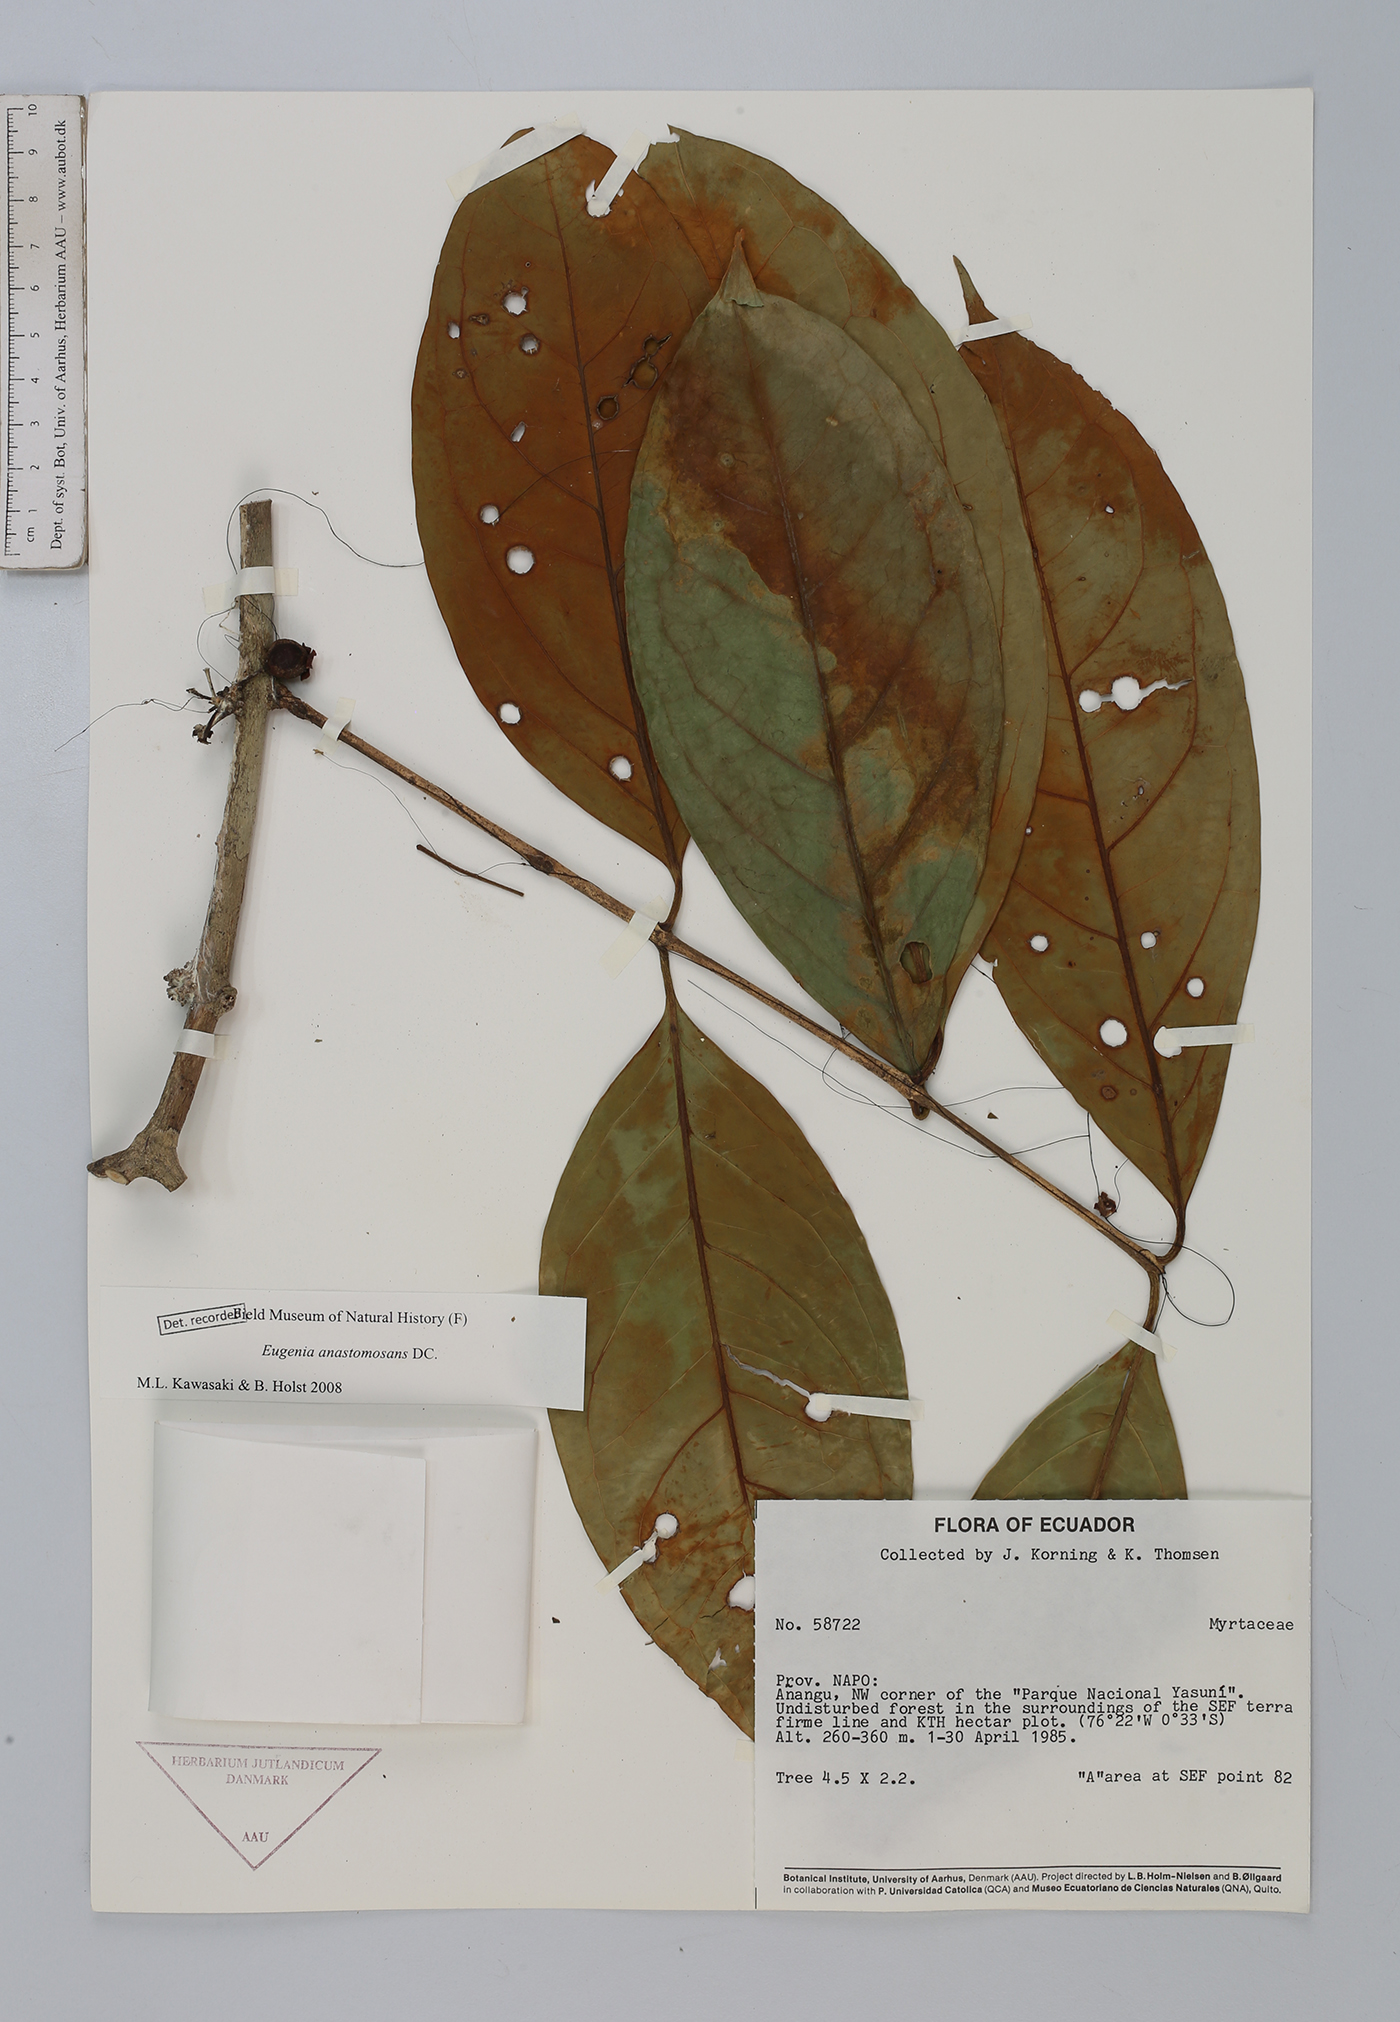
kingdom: Plantae
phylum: Tracheophyta
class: Magnoliopsida
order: Myrtales
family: Myrtaceae
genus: Eugenia
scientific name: Eugenia anastomosans
